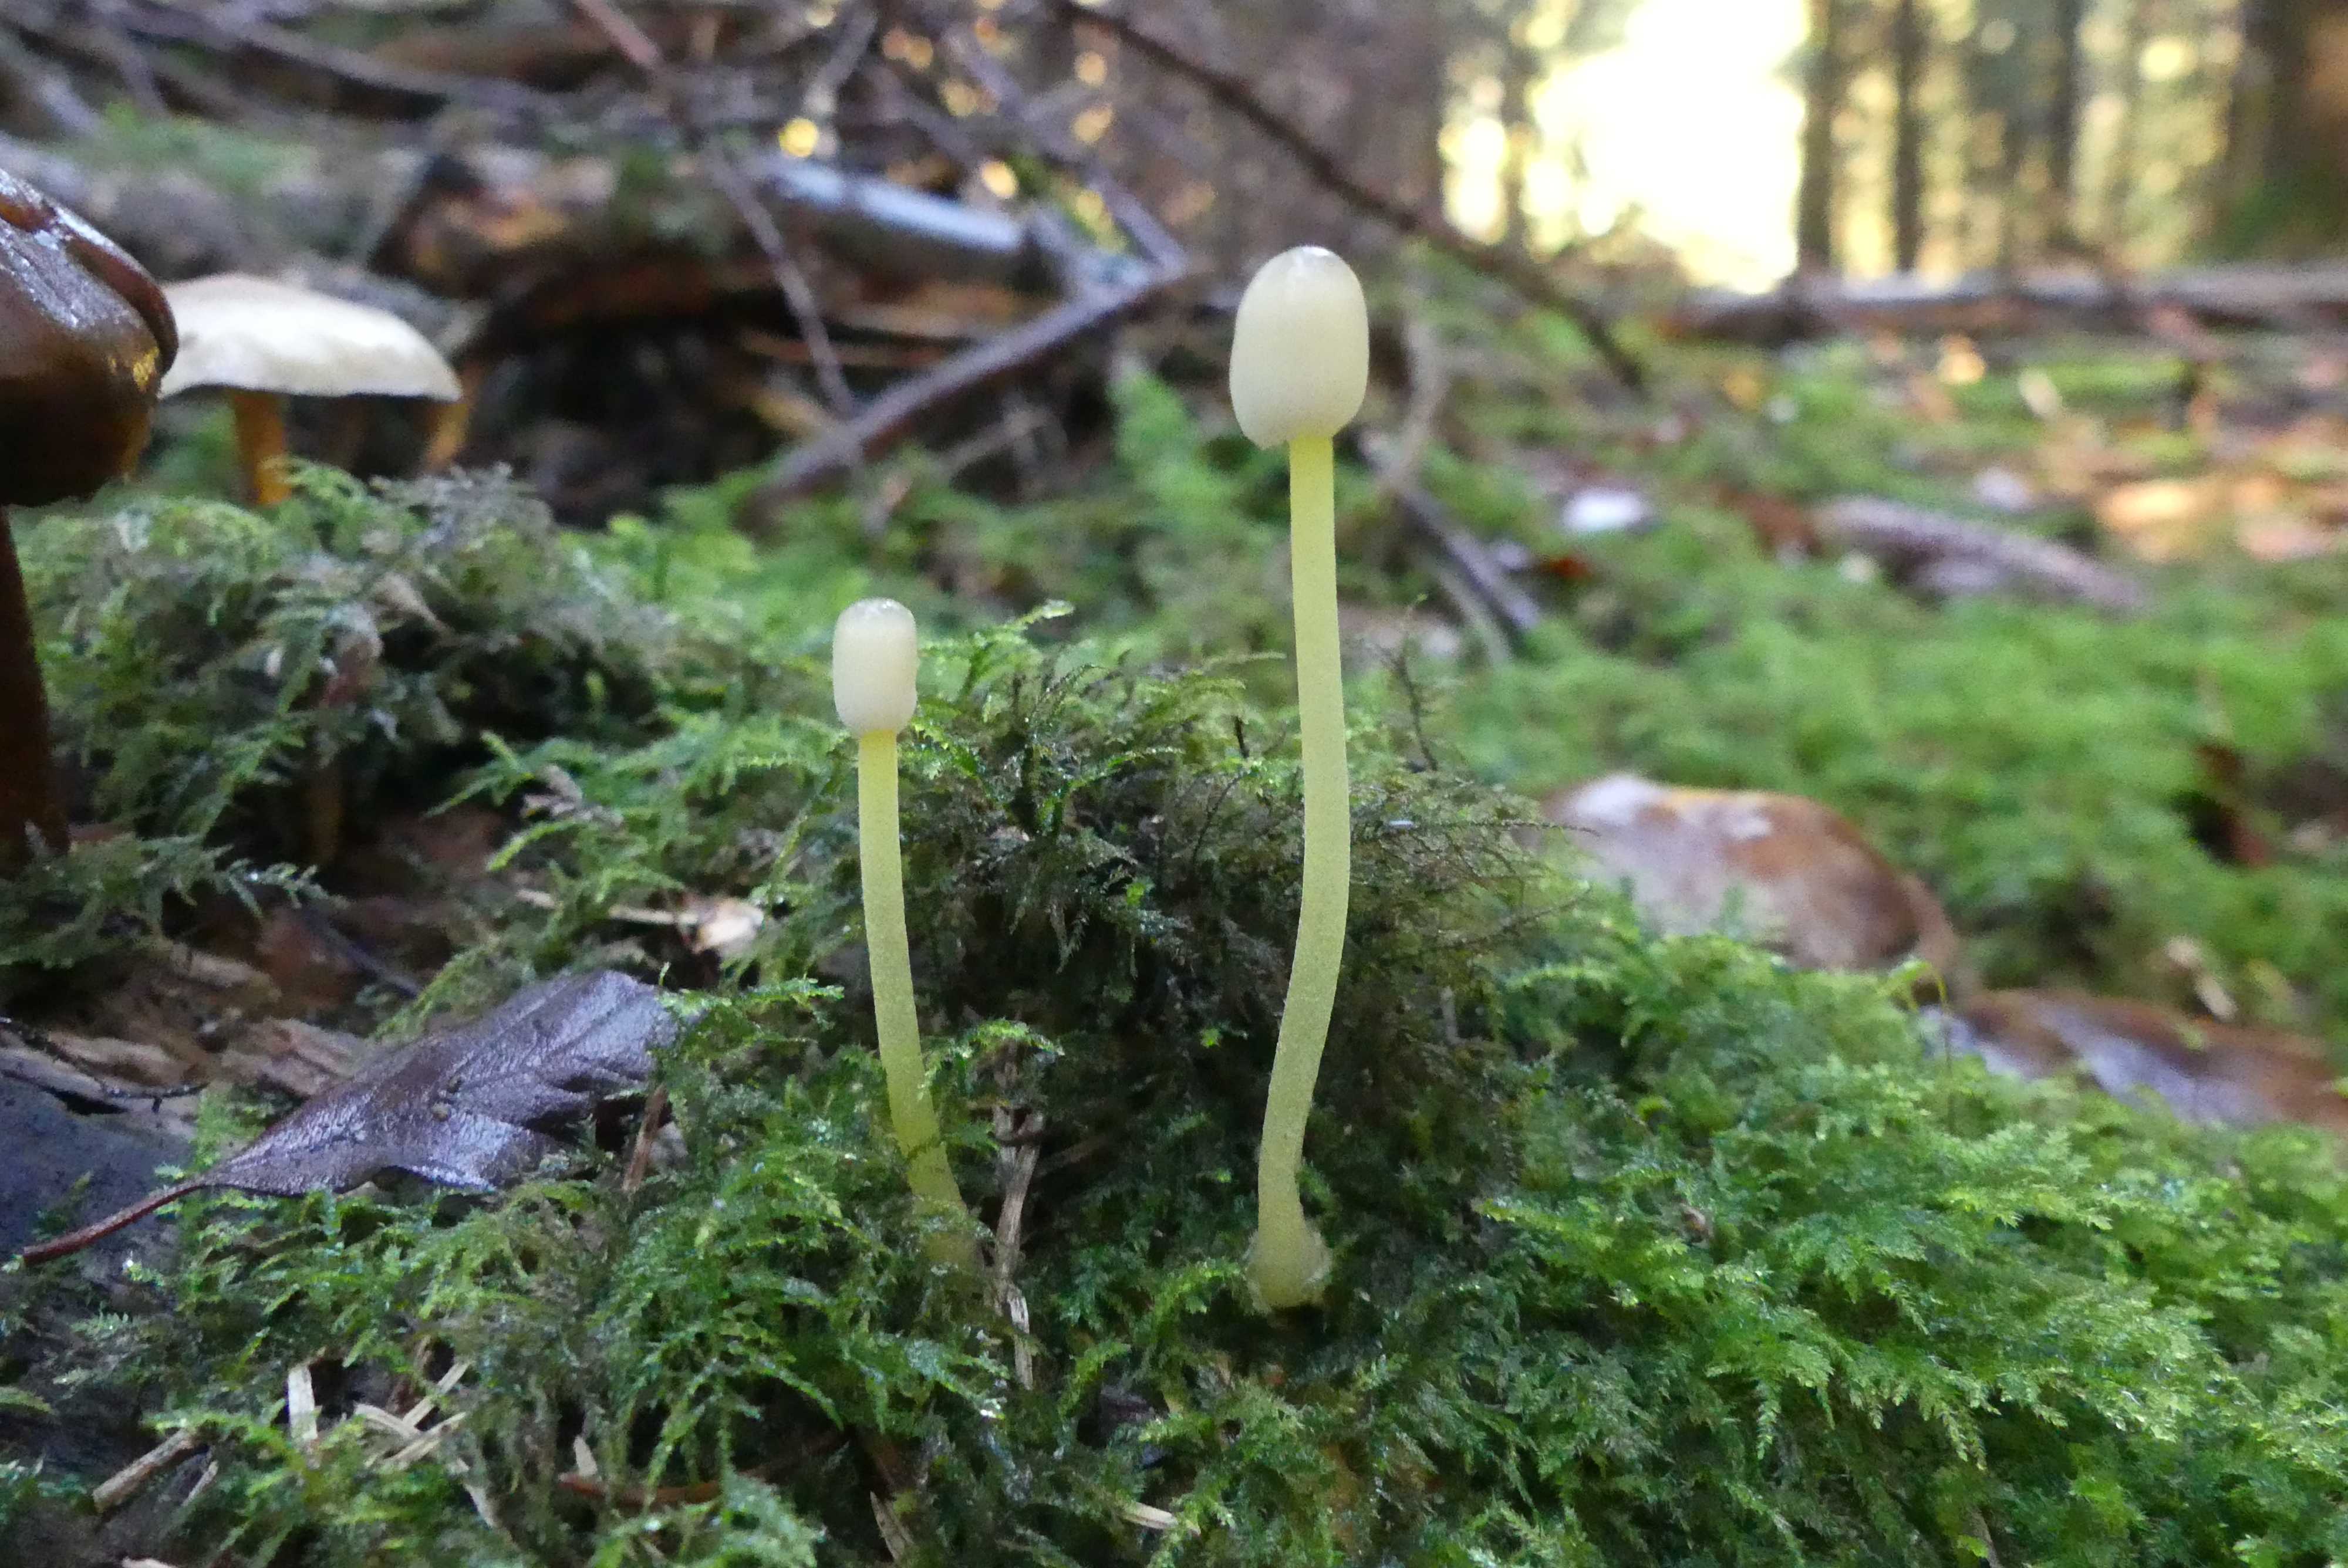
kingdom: Fungi
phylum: Basidiomycota
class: Agaricomycetes
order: Agaricales
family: Mycenaceae
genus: Mycena
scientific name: Mycena epipterygia
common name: gulstokket huesvamp
